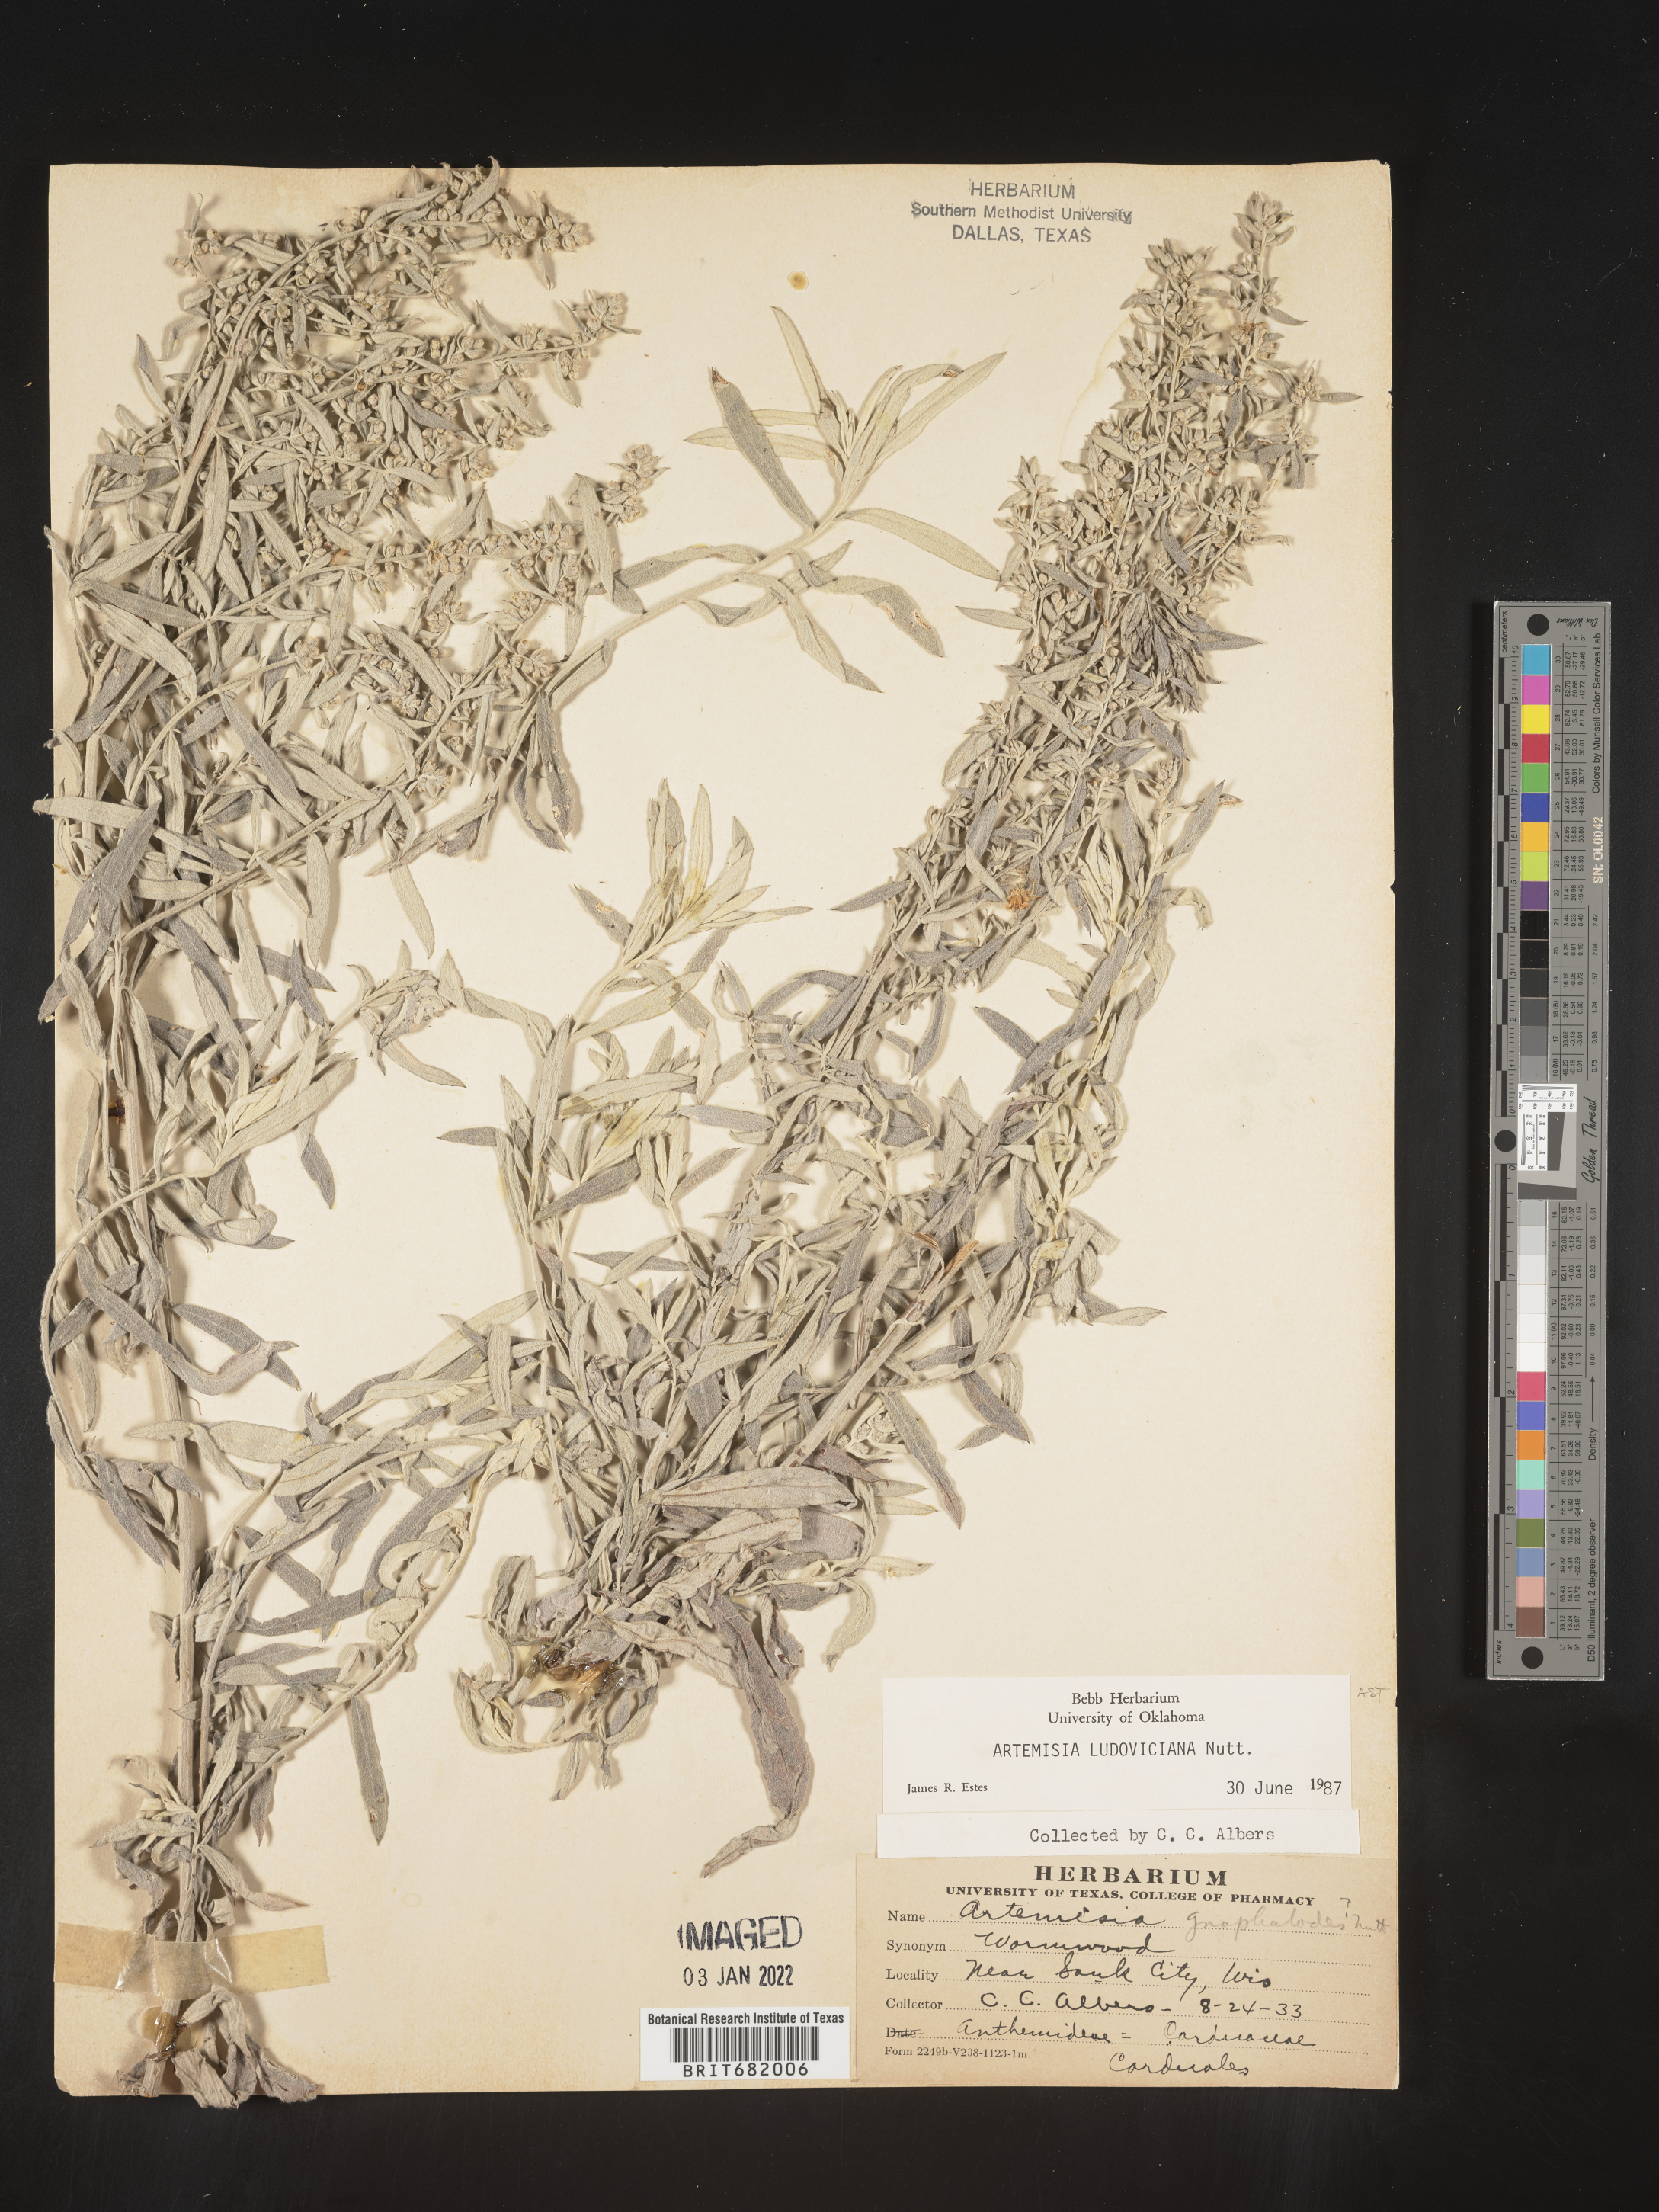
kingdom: Plantae
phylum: Tracheophyta
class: Magnoliopsida
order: Asterales
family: Asteraceae
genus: Artemisia
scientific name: Artemisia ludoviciana
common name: Western mugwort
